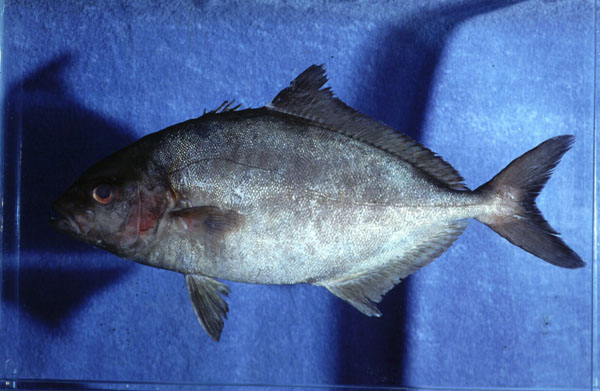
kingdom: Animalia
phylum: Chordata
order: Perciformes
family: Carangidae
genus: Seriola
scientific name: Seriola rivoliana
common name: Almaco jack
